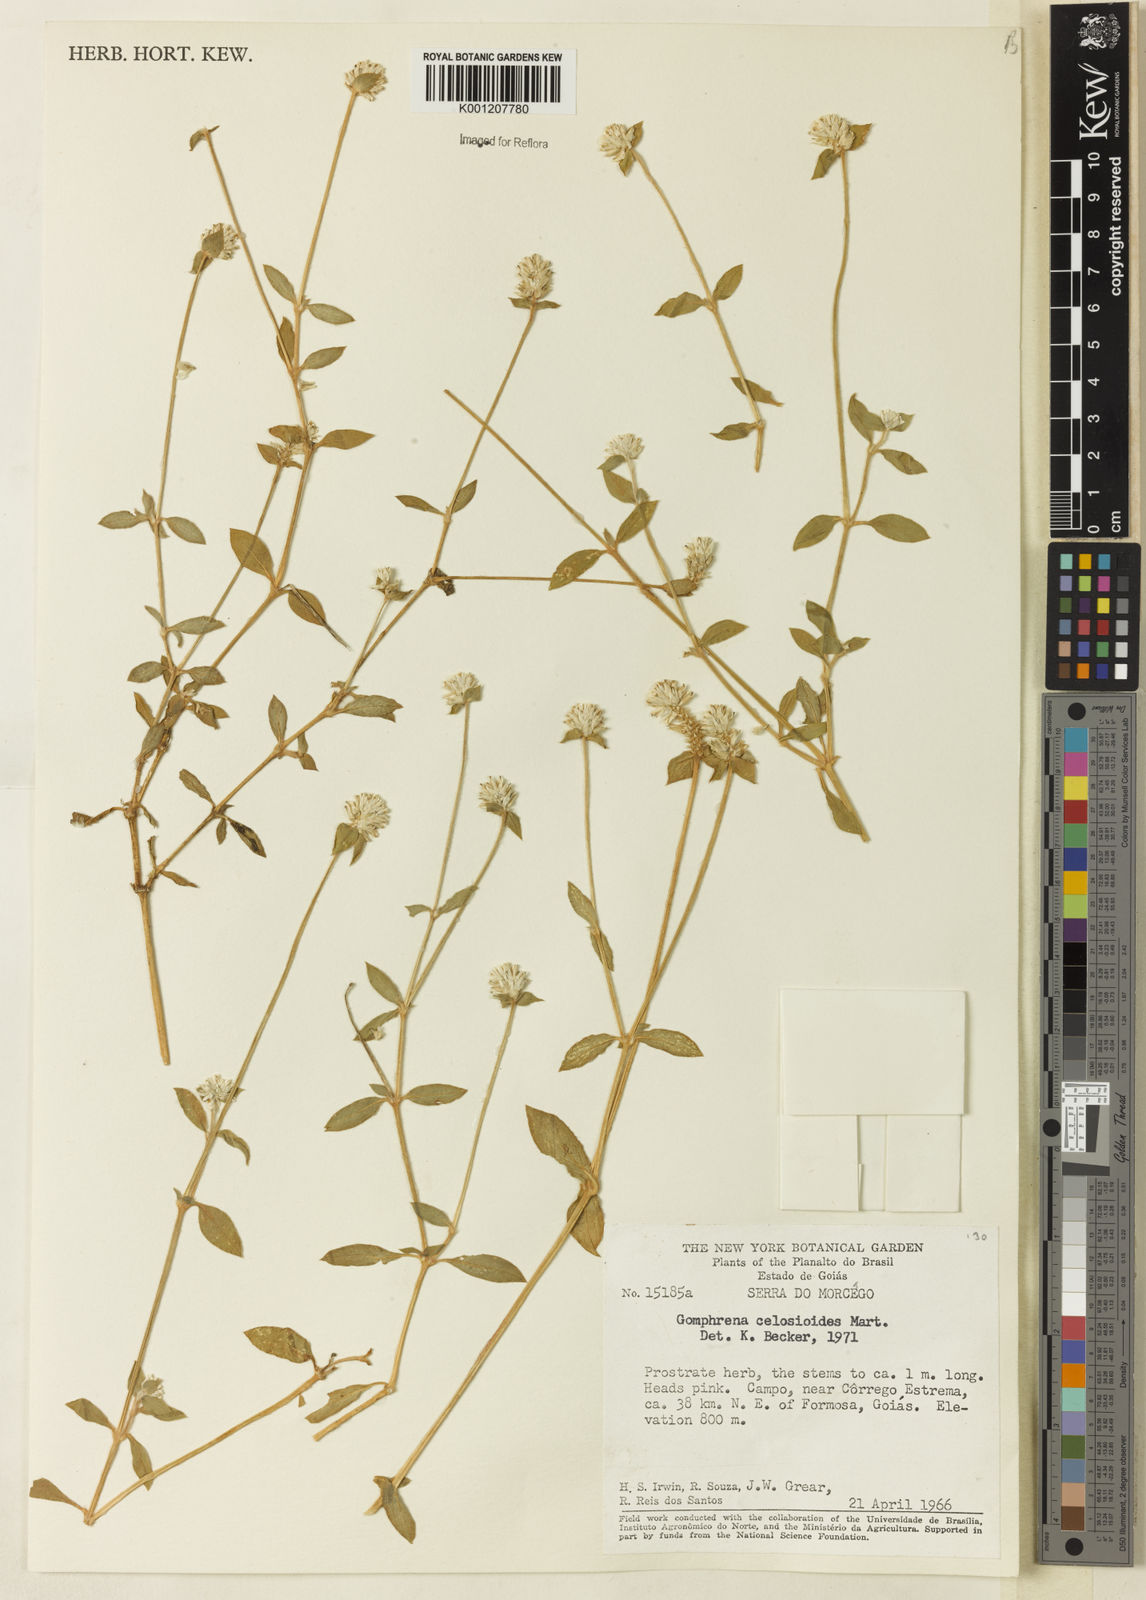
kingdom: Plantae
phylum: Tracheophyta
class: Magnoliopsida
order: Caryophyllales
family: Amaranthaceae
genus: Gomphrena
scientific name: Gomphrena celosioides
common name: Gomphrena-weed
